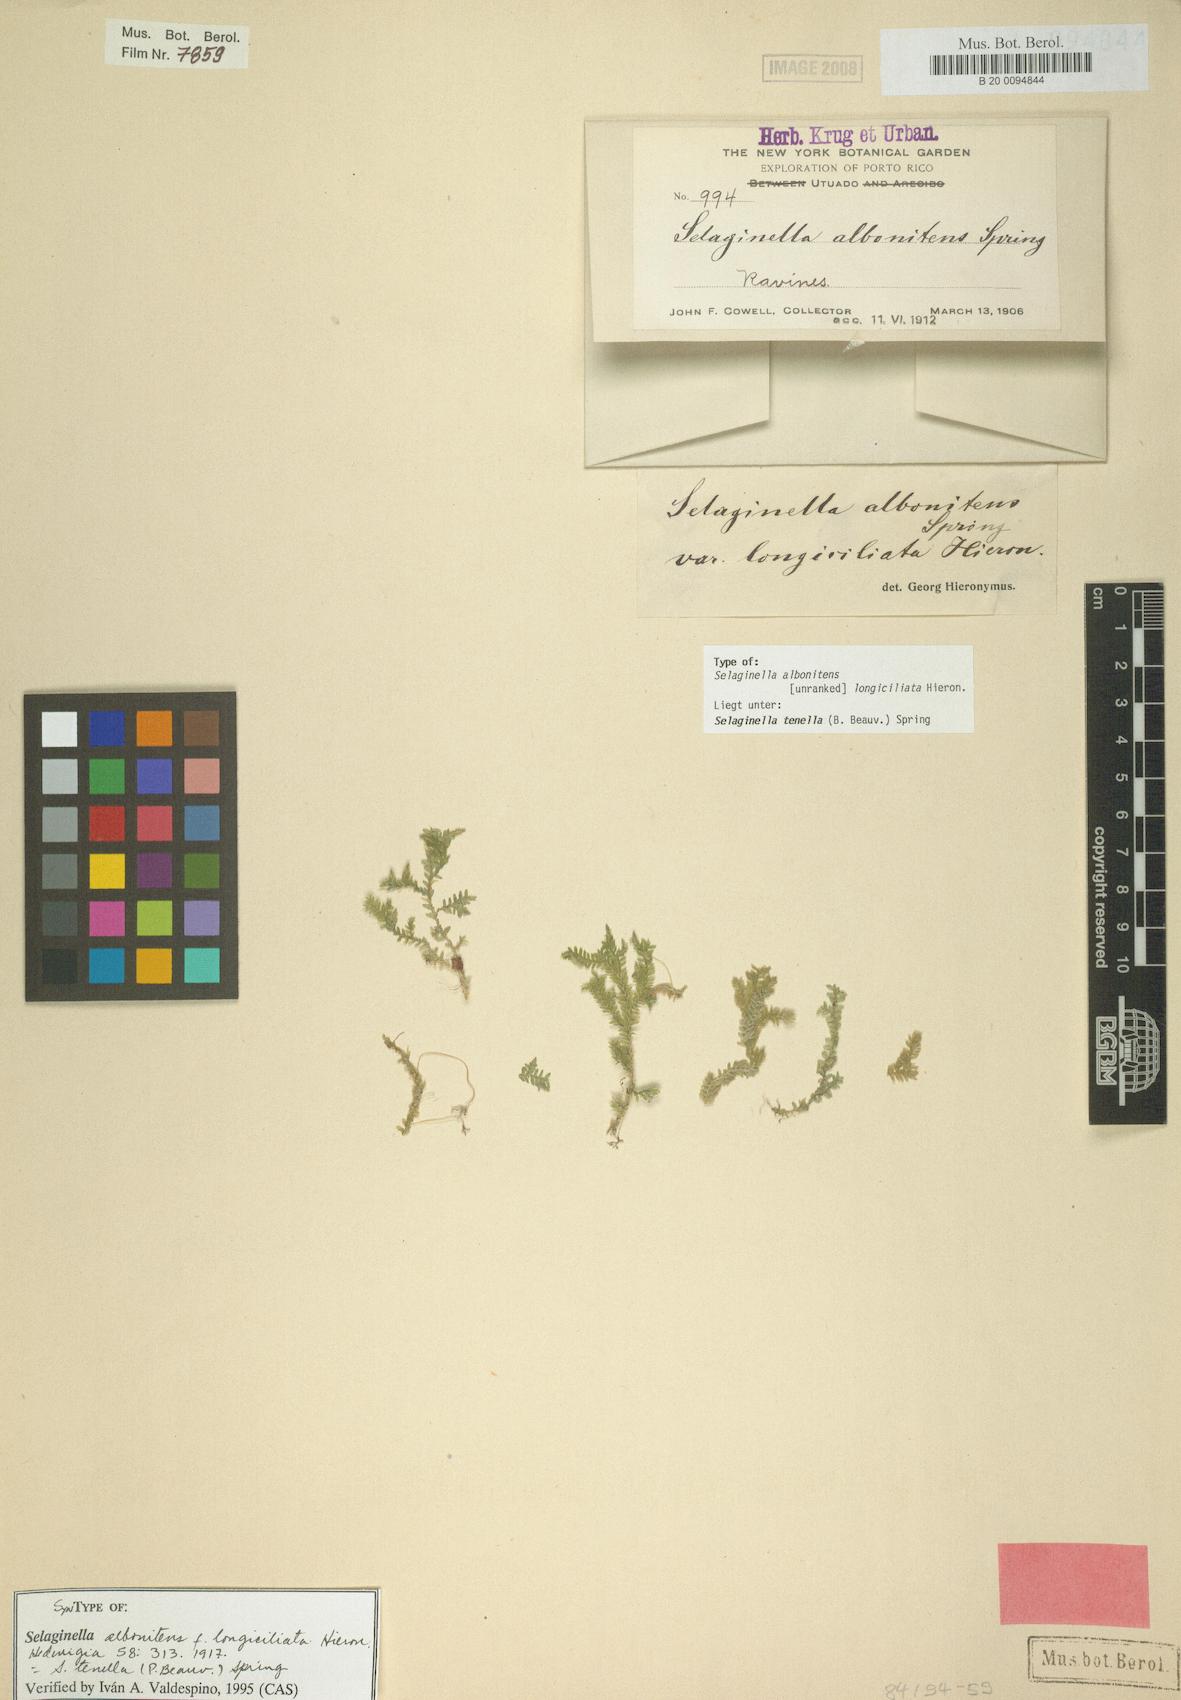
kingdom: Plantae
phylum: Tracheophyta
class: Lycopodiopsida
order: Selaginellales
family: Selaginellaceae
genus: Selaginella
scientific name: Selaginella tenella
